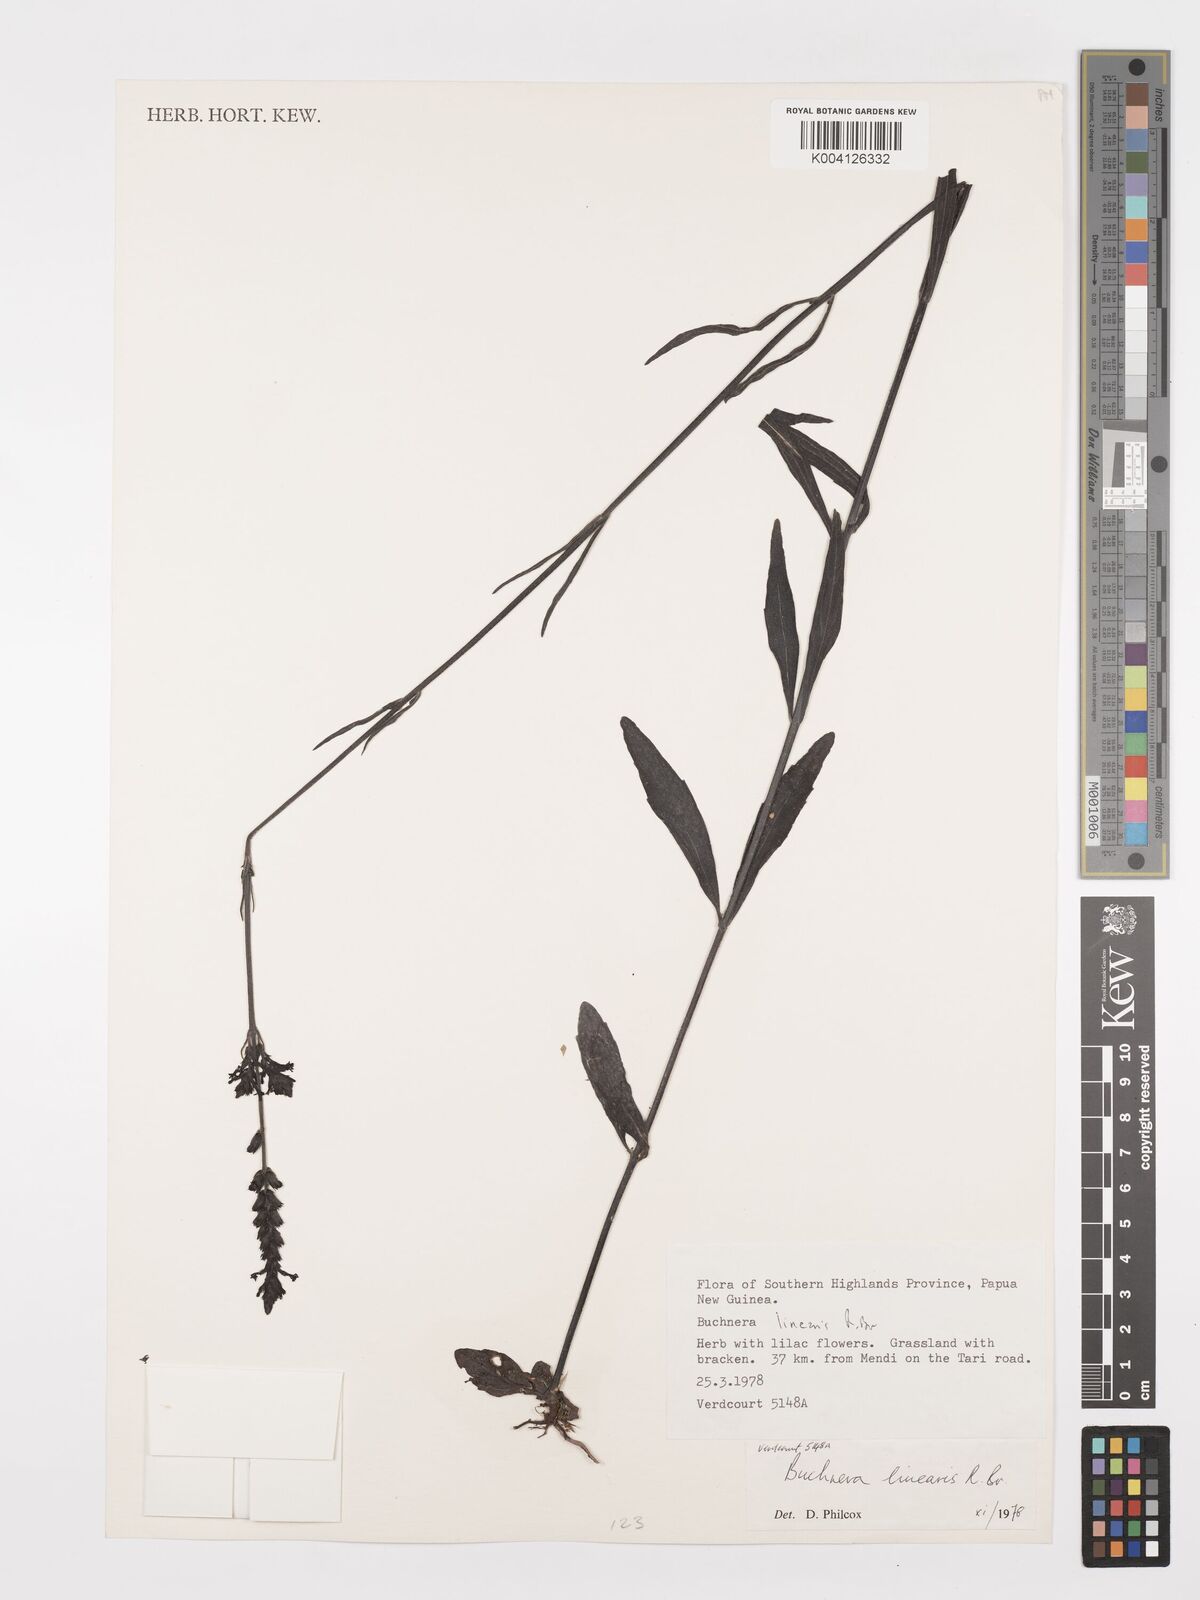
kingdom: Plantae
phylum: Tracheophyta
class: Magnoliopsida
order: Lamiales
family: Orobanchaceae
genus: Buchnera
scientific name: Buchnera linearis
